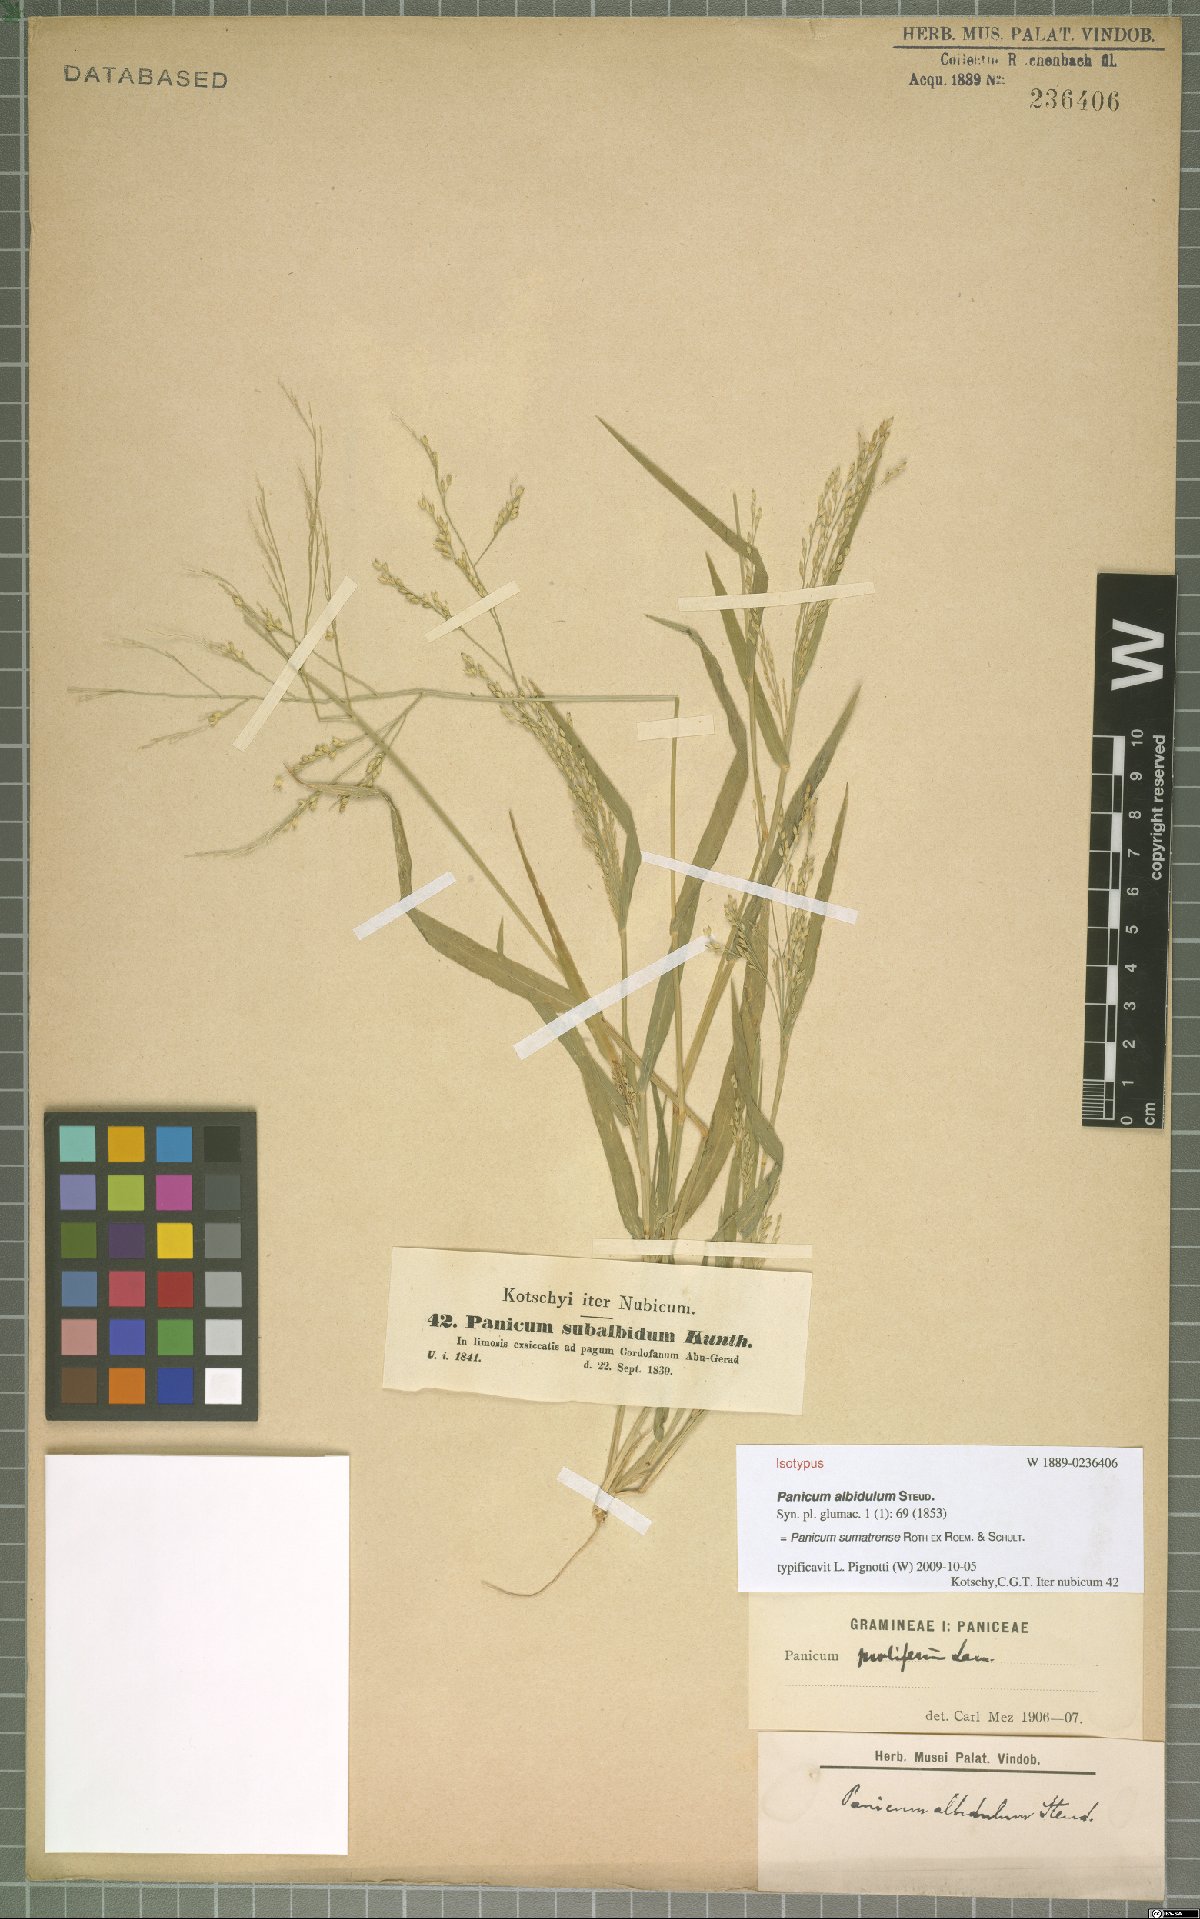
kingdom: Plantae
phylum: Tracheophyta
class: Liliopsida
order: Poales
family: Poaceae
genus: Panicum
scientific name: Panicum sumatrense
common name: Little millet
